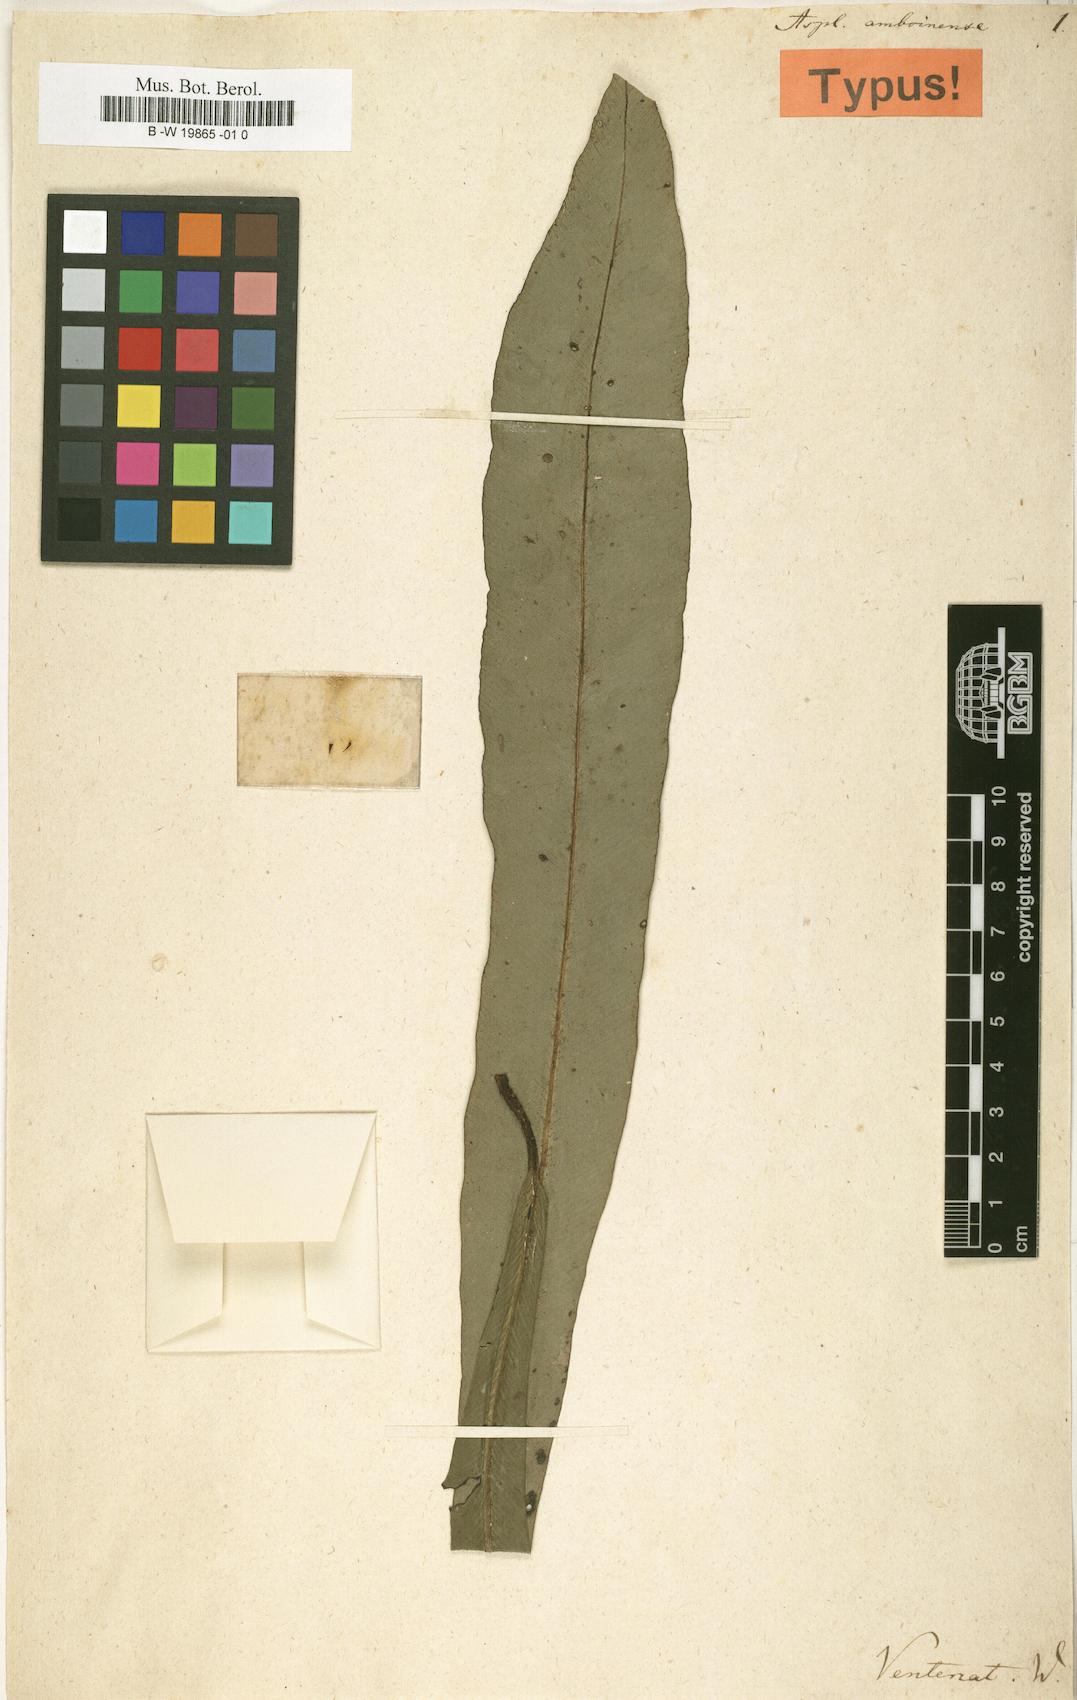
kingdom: Plantae
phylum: Tracheophyta
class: Polypodiopsida
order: Polypodiales
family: Aspleniaceae
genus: Asplenium
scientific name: Asplenium amboinense
